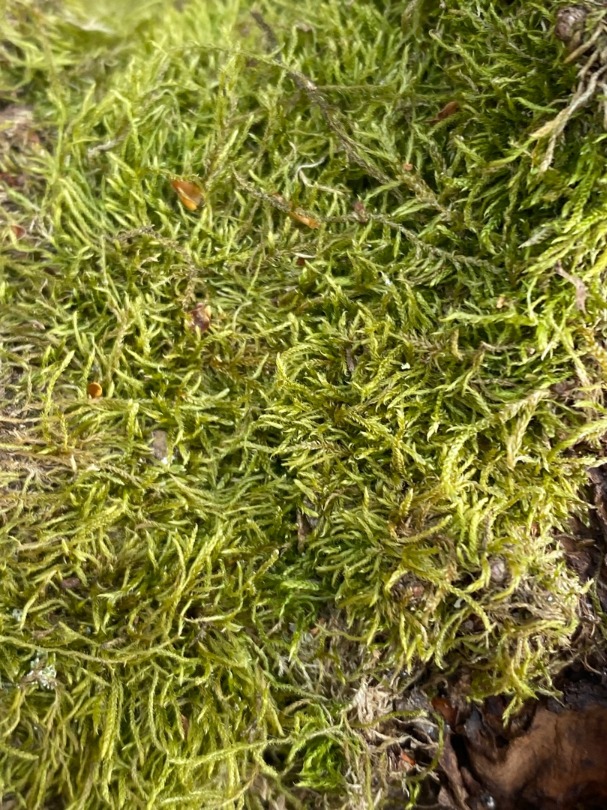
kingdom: Plantae
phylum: Bryophyta
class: Bryopsida
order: Hypnales
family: Hypnaceae
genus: Hypnum
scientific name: Hypnum
